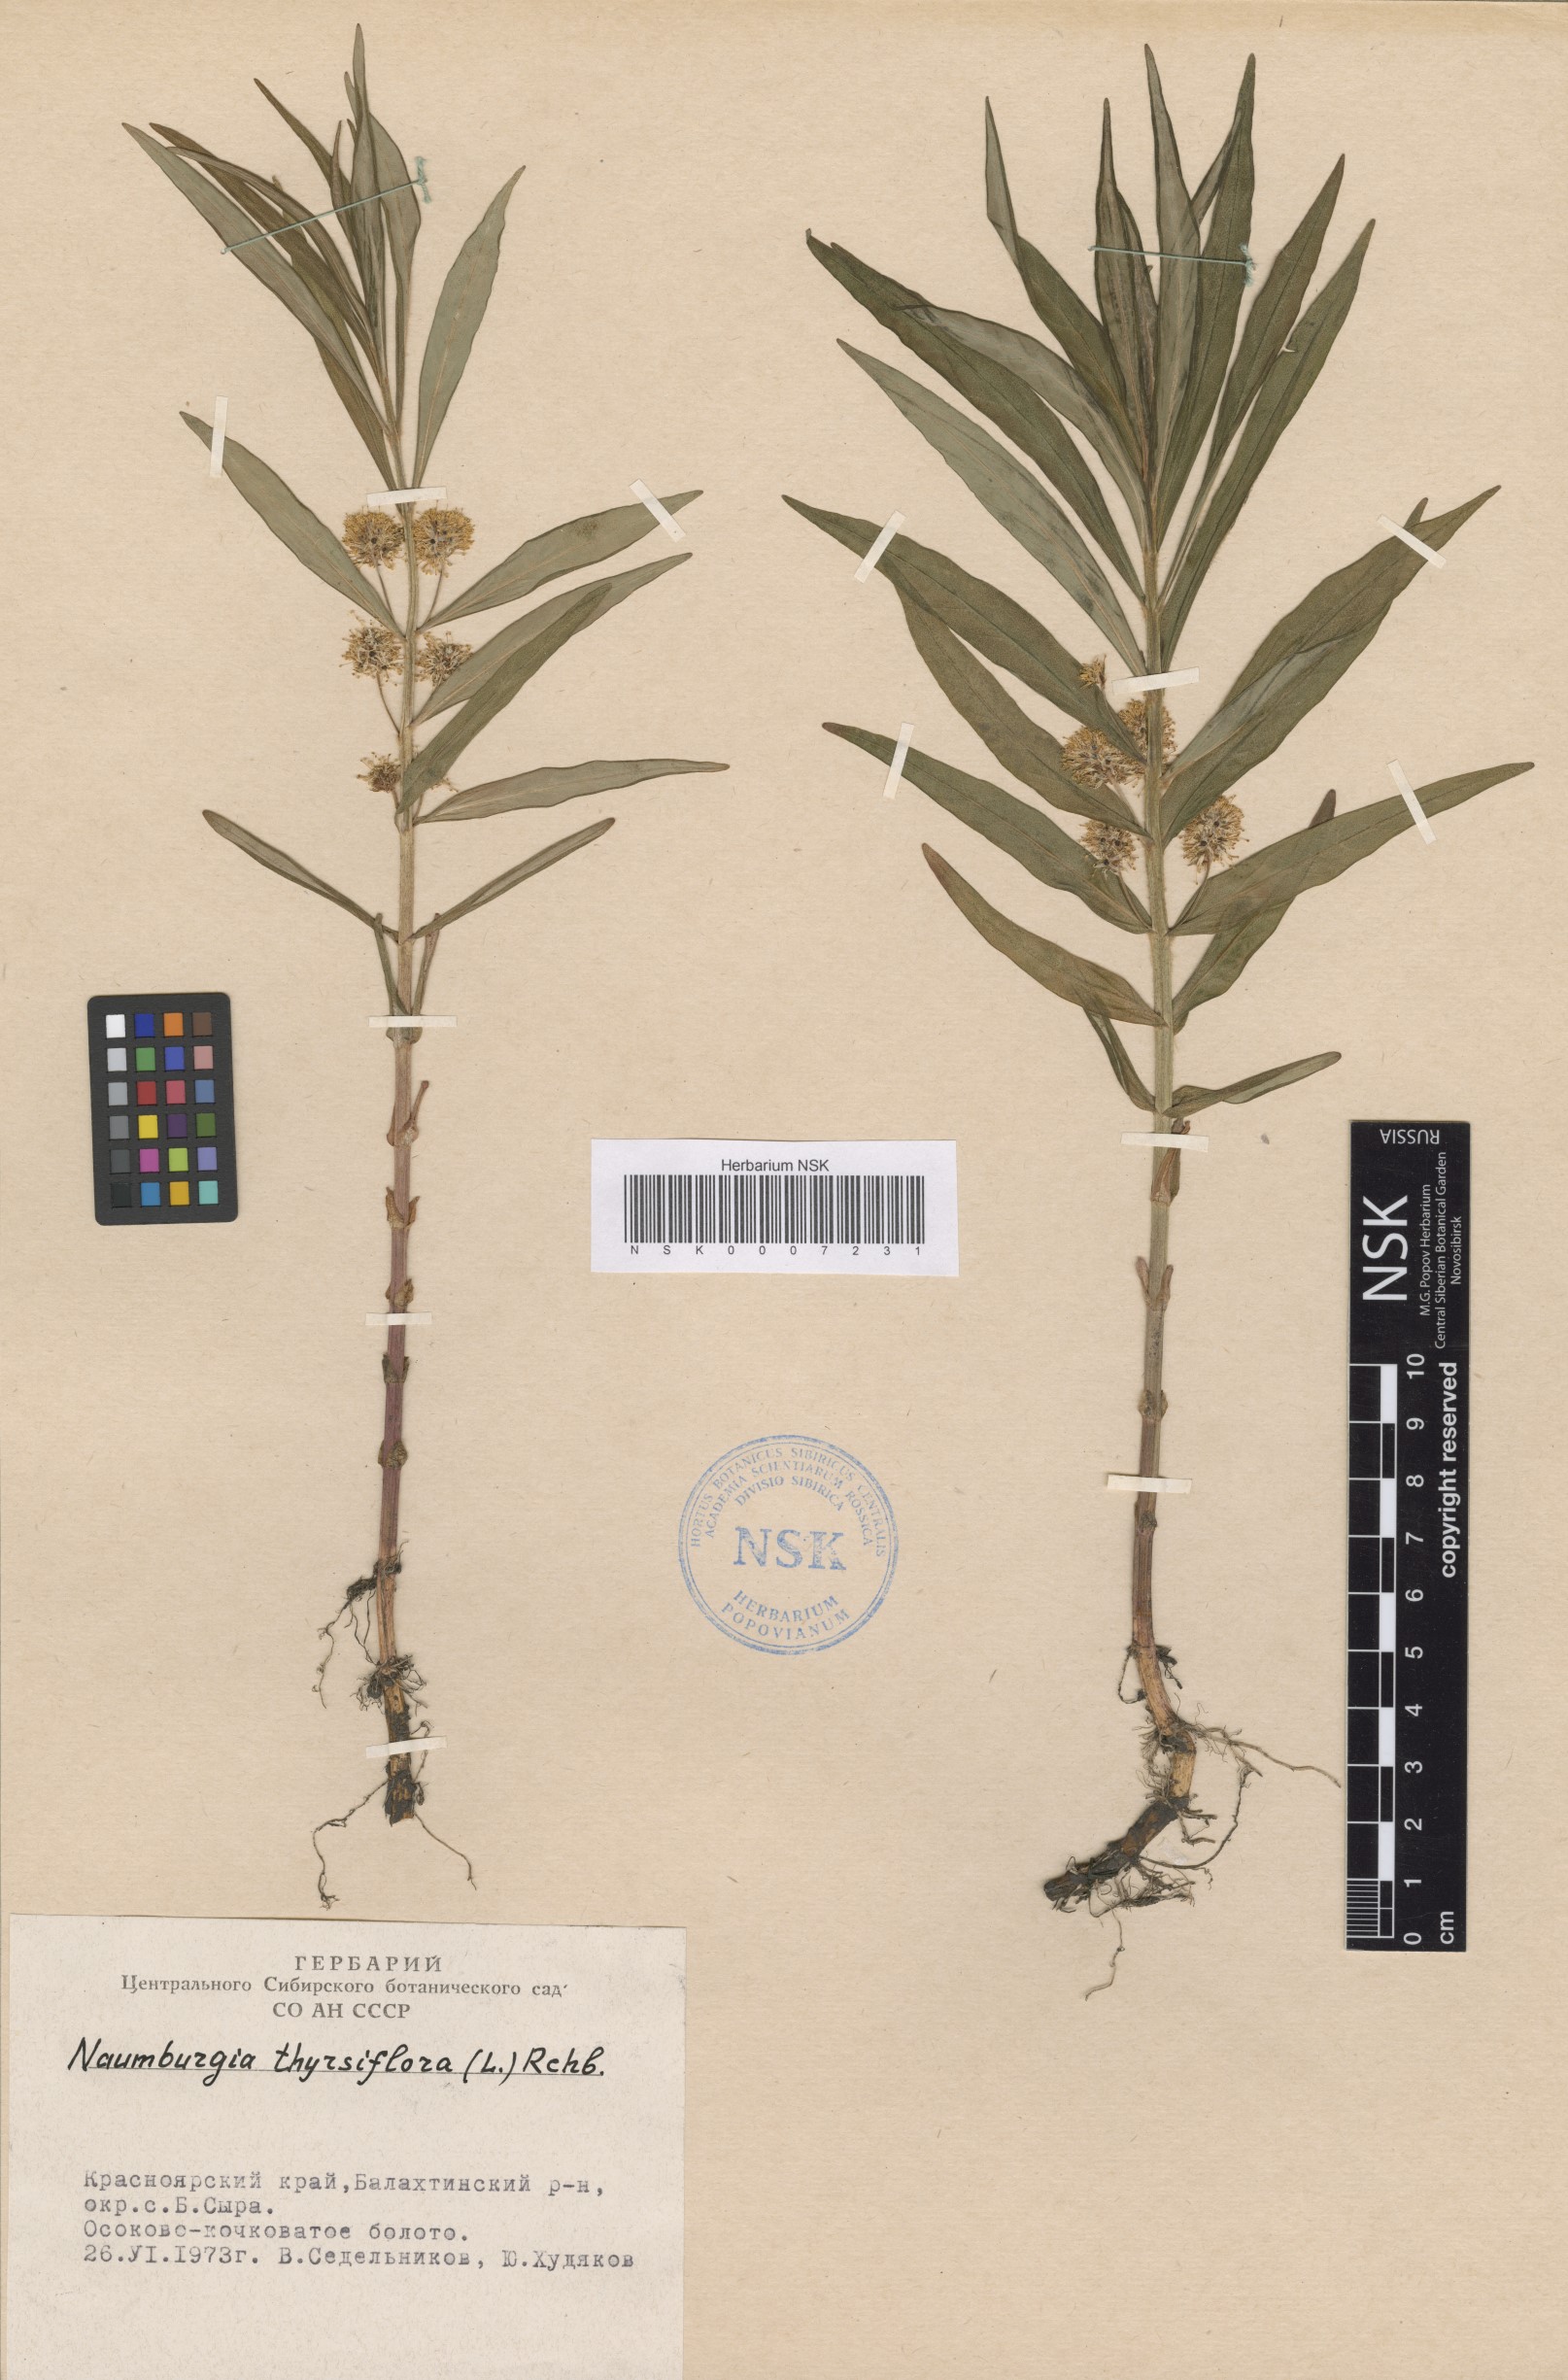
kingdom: Plantae
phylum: Tracheophyta
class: Magnoliopsida
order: Ericales
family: Primulaceae
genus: Lysimachia
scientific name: Lysimachia thyrsiflora
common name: Tufted loosestrife
